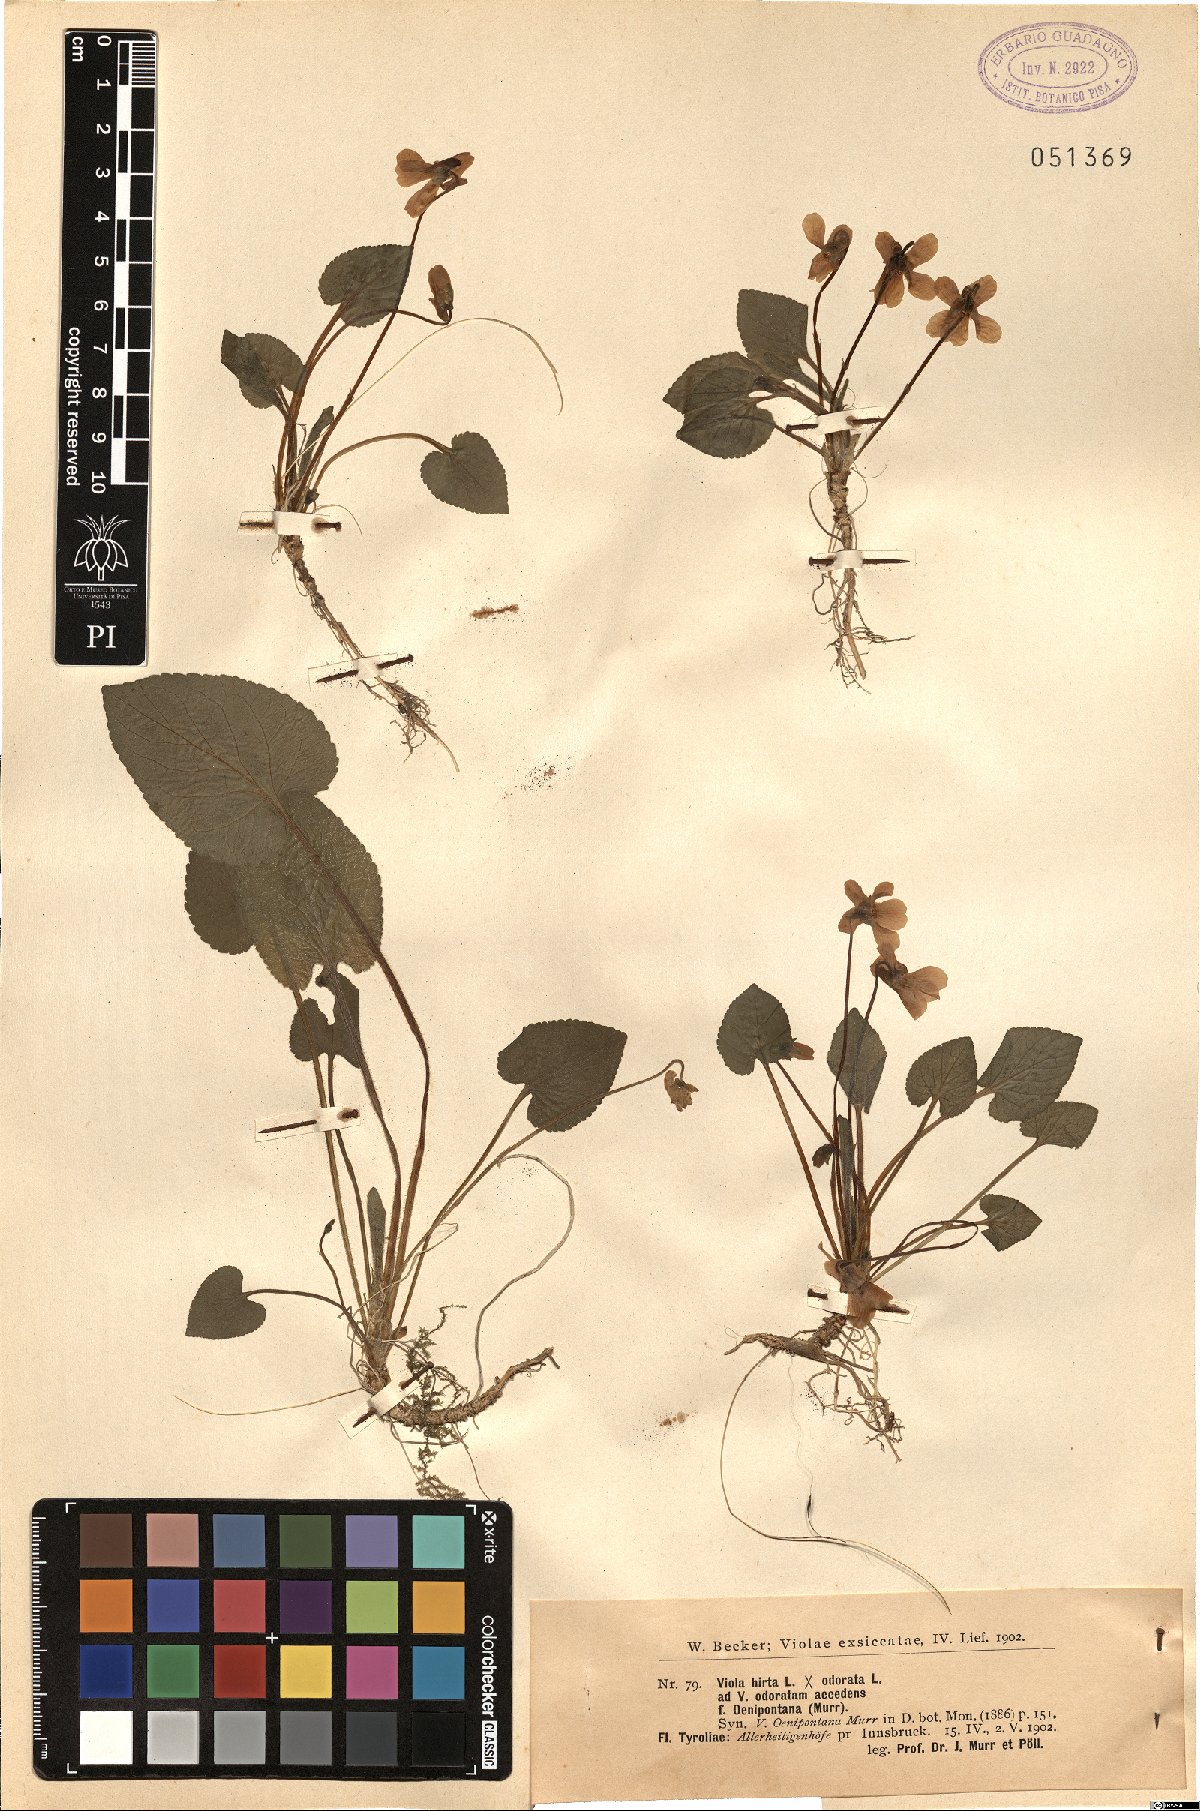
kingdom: Plantae
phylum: Tracheophyta
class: Magnoliopsida
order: Malpighiales
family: Violaceae
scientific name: Violaceae
